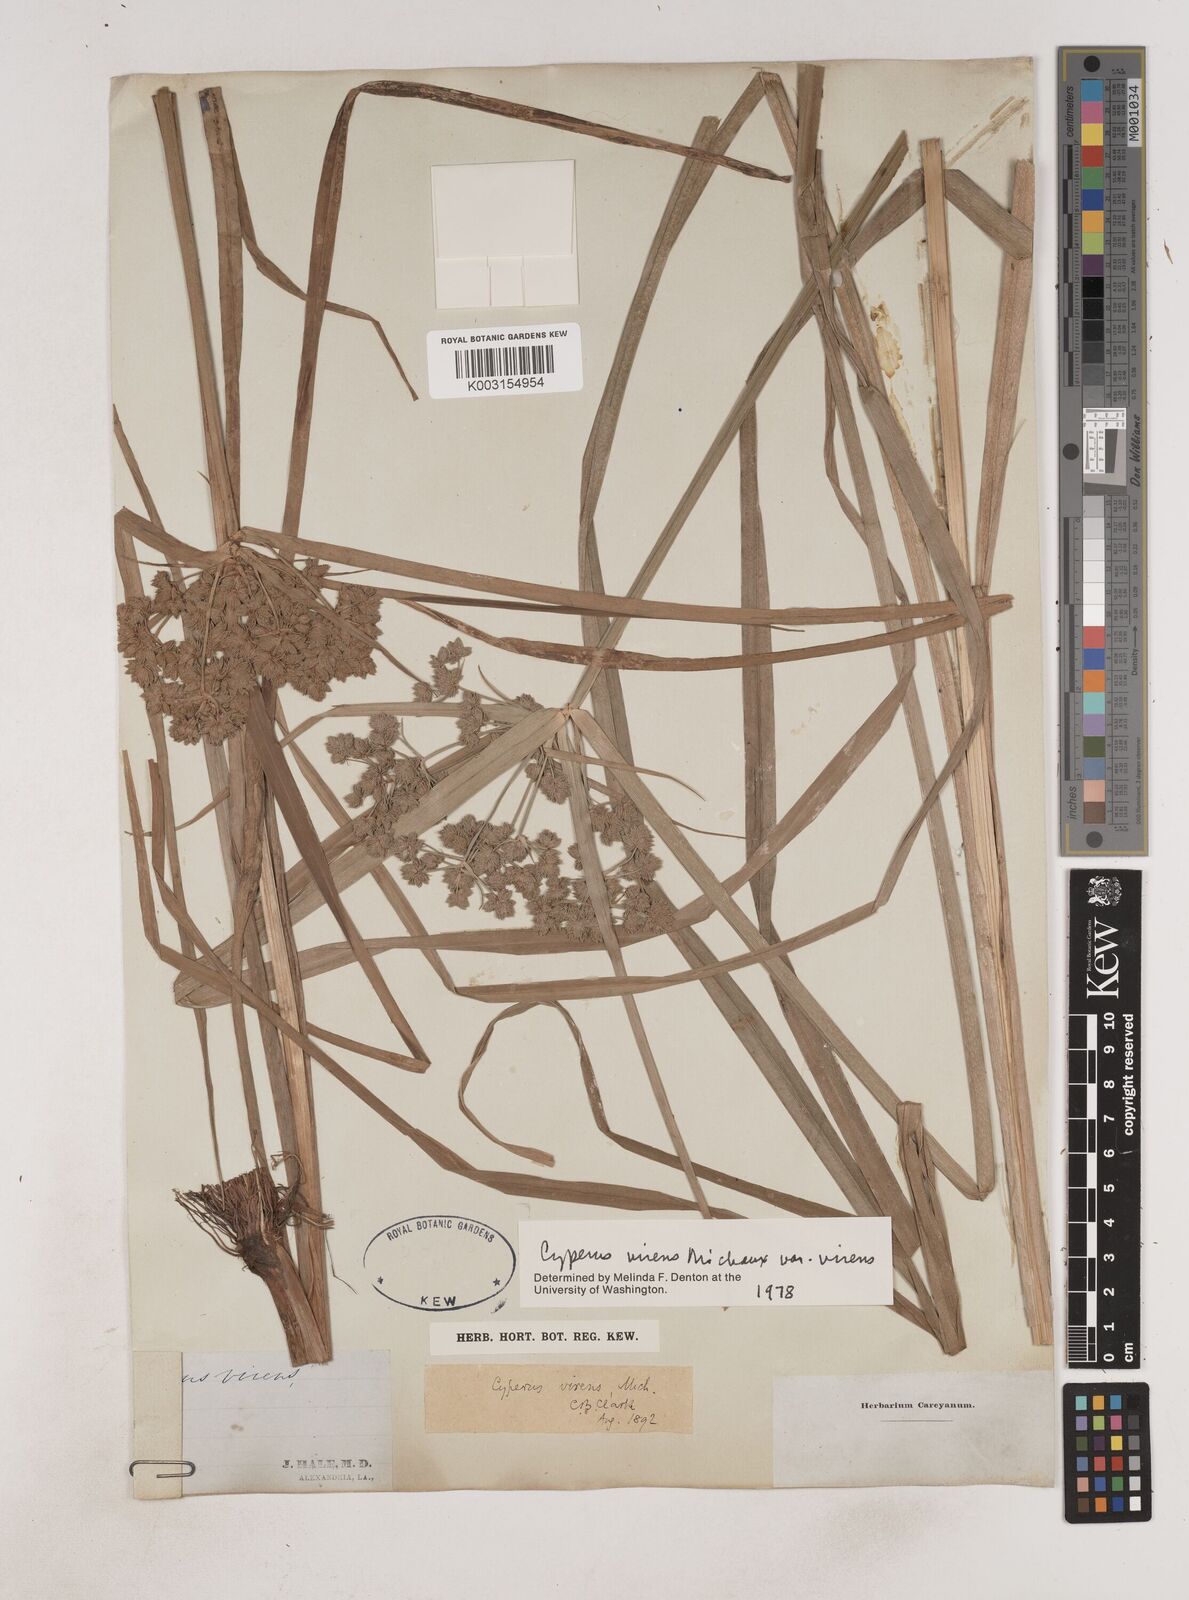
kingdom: Plantae
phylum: Tracheophyta
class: Liliopsida
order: Poales
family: Cyperaceae
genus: Cyperus
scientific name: Cyperus virens
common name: Green flatsedge
